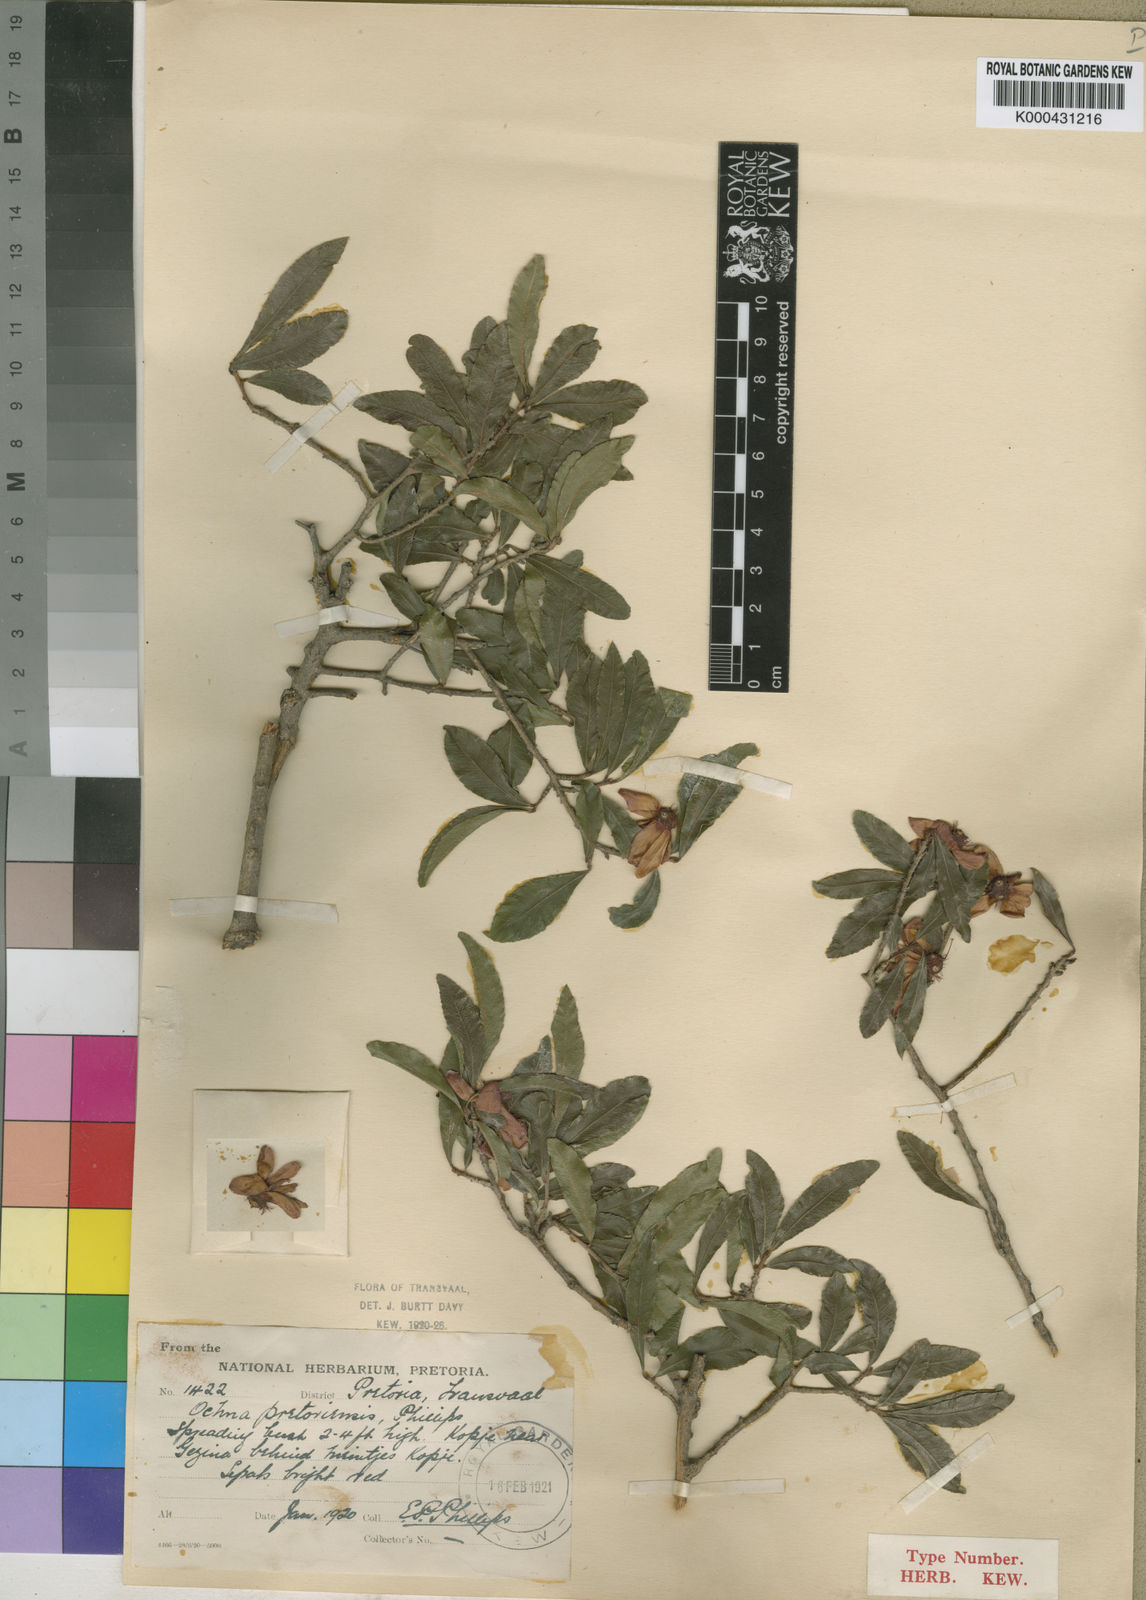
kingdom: Plantae
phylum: Tracheophyta
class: Magnoliopsida
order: Malpighiales
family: Ochnaceae
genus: Ochna
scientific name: Ochna pretoriensis
